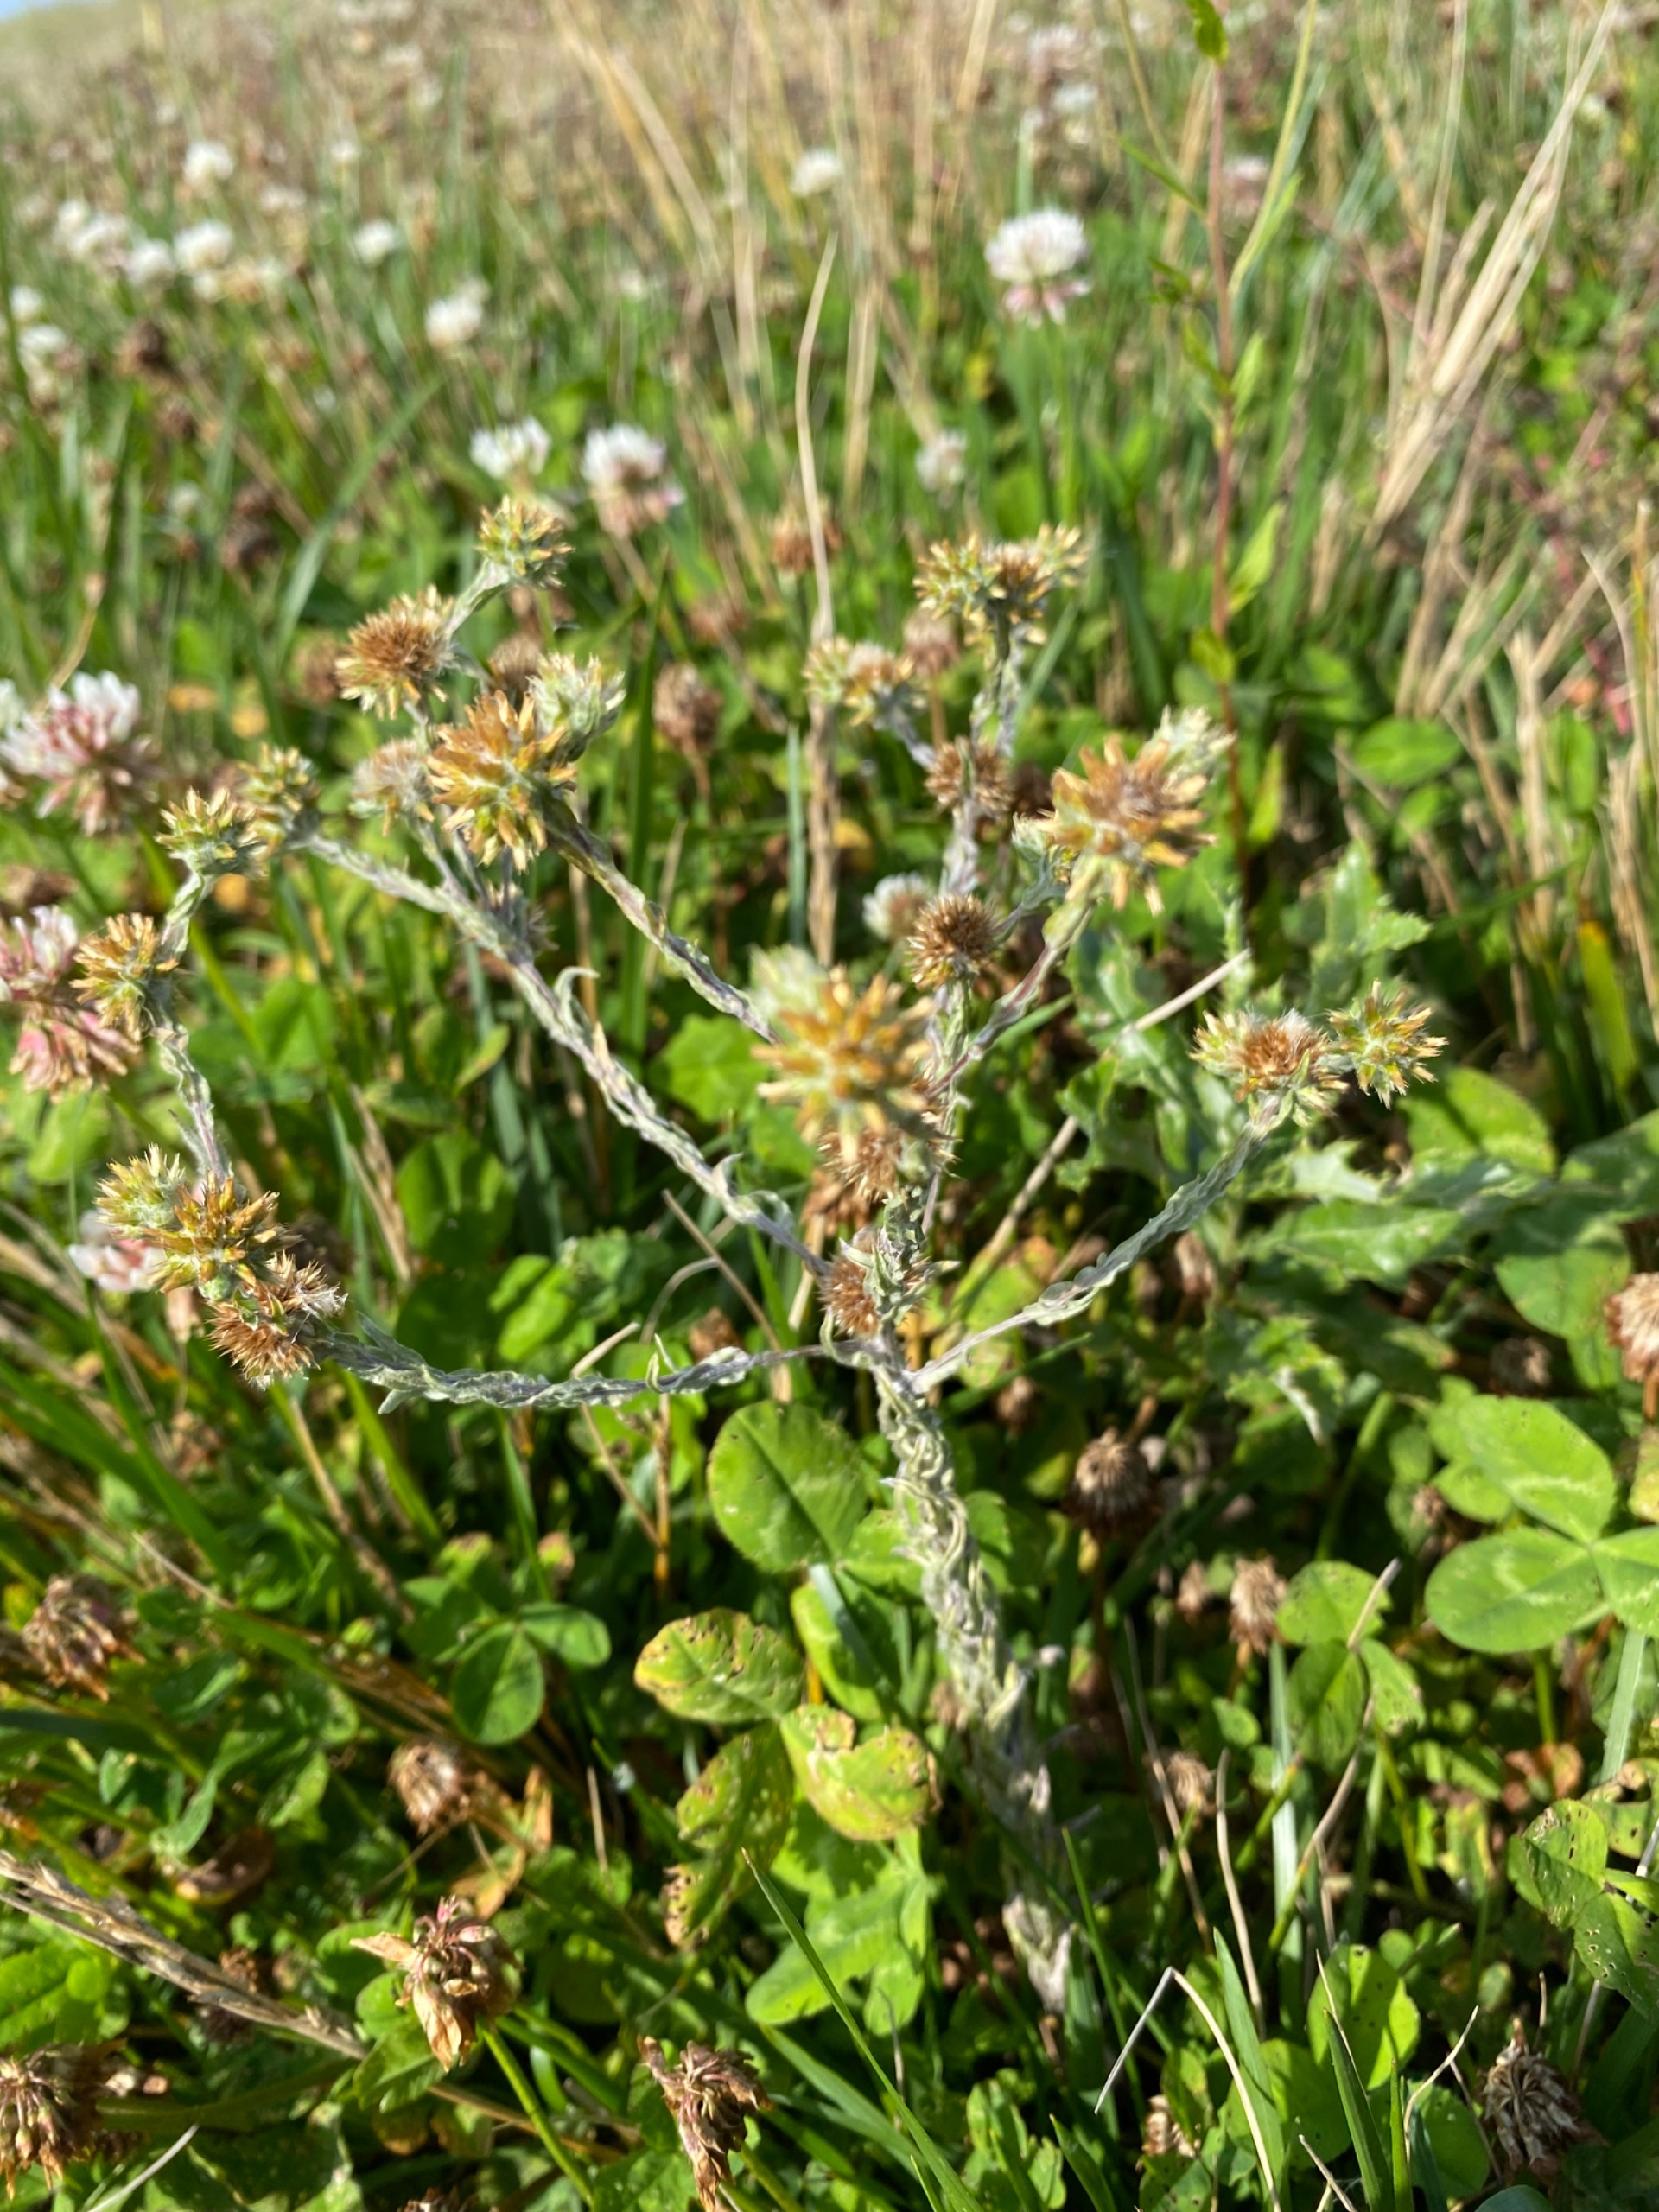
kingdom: Plantae
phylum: Tracheophyta
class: Magnoliopsida
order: Asterales
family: Asteraceae
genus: Filago
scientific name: Filago germanica
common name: Kugle-museurt
